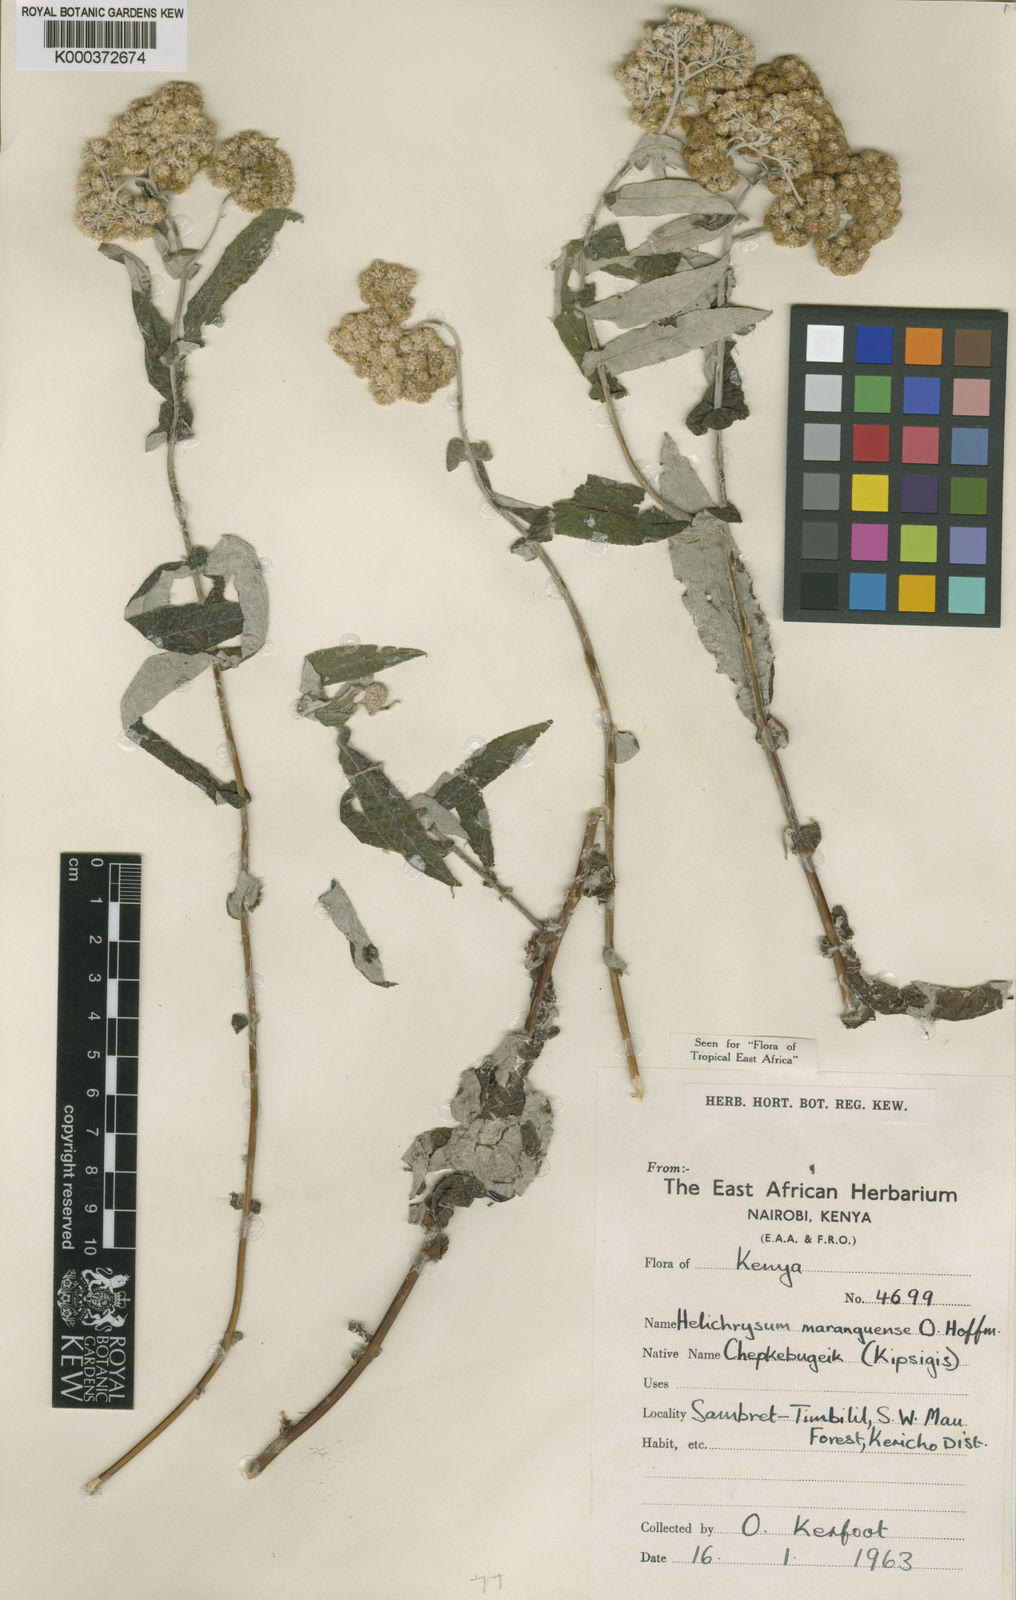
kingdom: Plantae
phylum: Tracheophyta
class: Magnoliopsida
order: Asterales
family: Asteraceae
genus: Helichrysum
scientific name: Helichrysum maranguense
